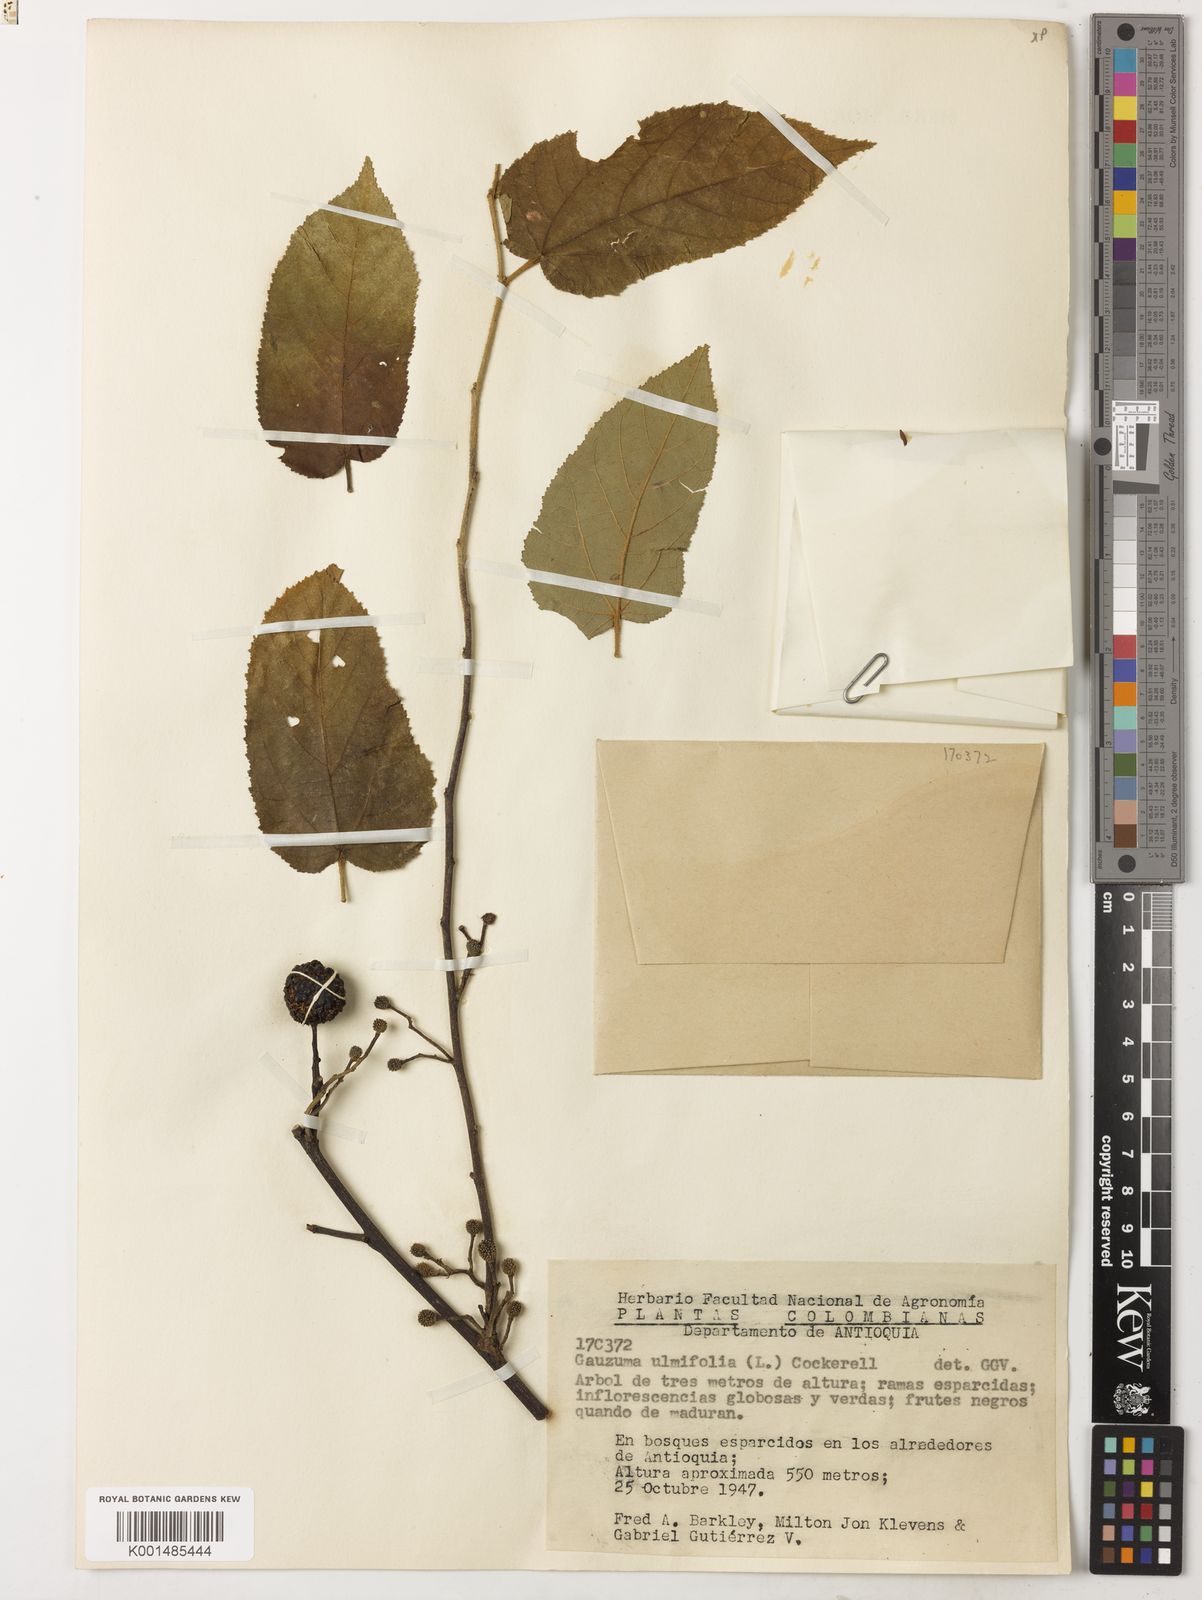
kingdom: Plantae
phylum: Tracheophyta
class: Magnoliopsida
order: Malvales
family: Malvaceae
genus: Guazuma
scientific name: Guazuma ulmifolia
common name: Bastard-cedar
